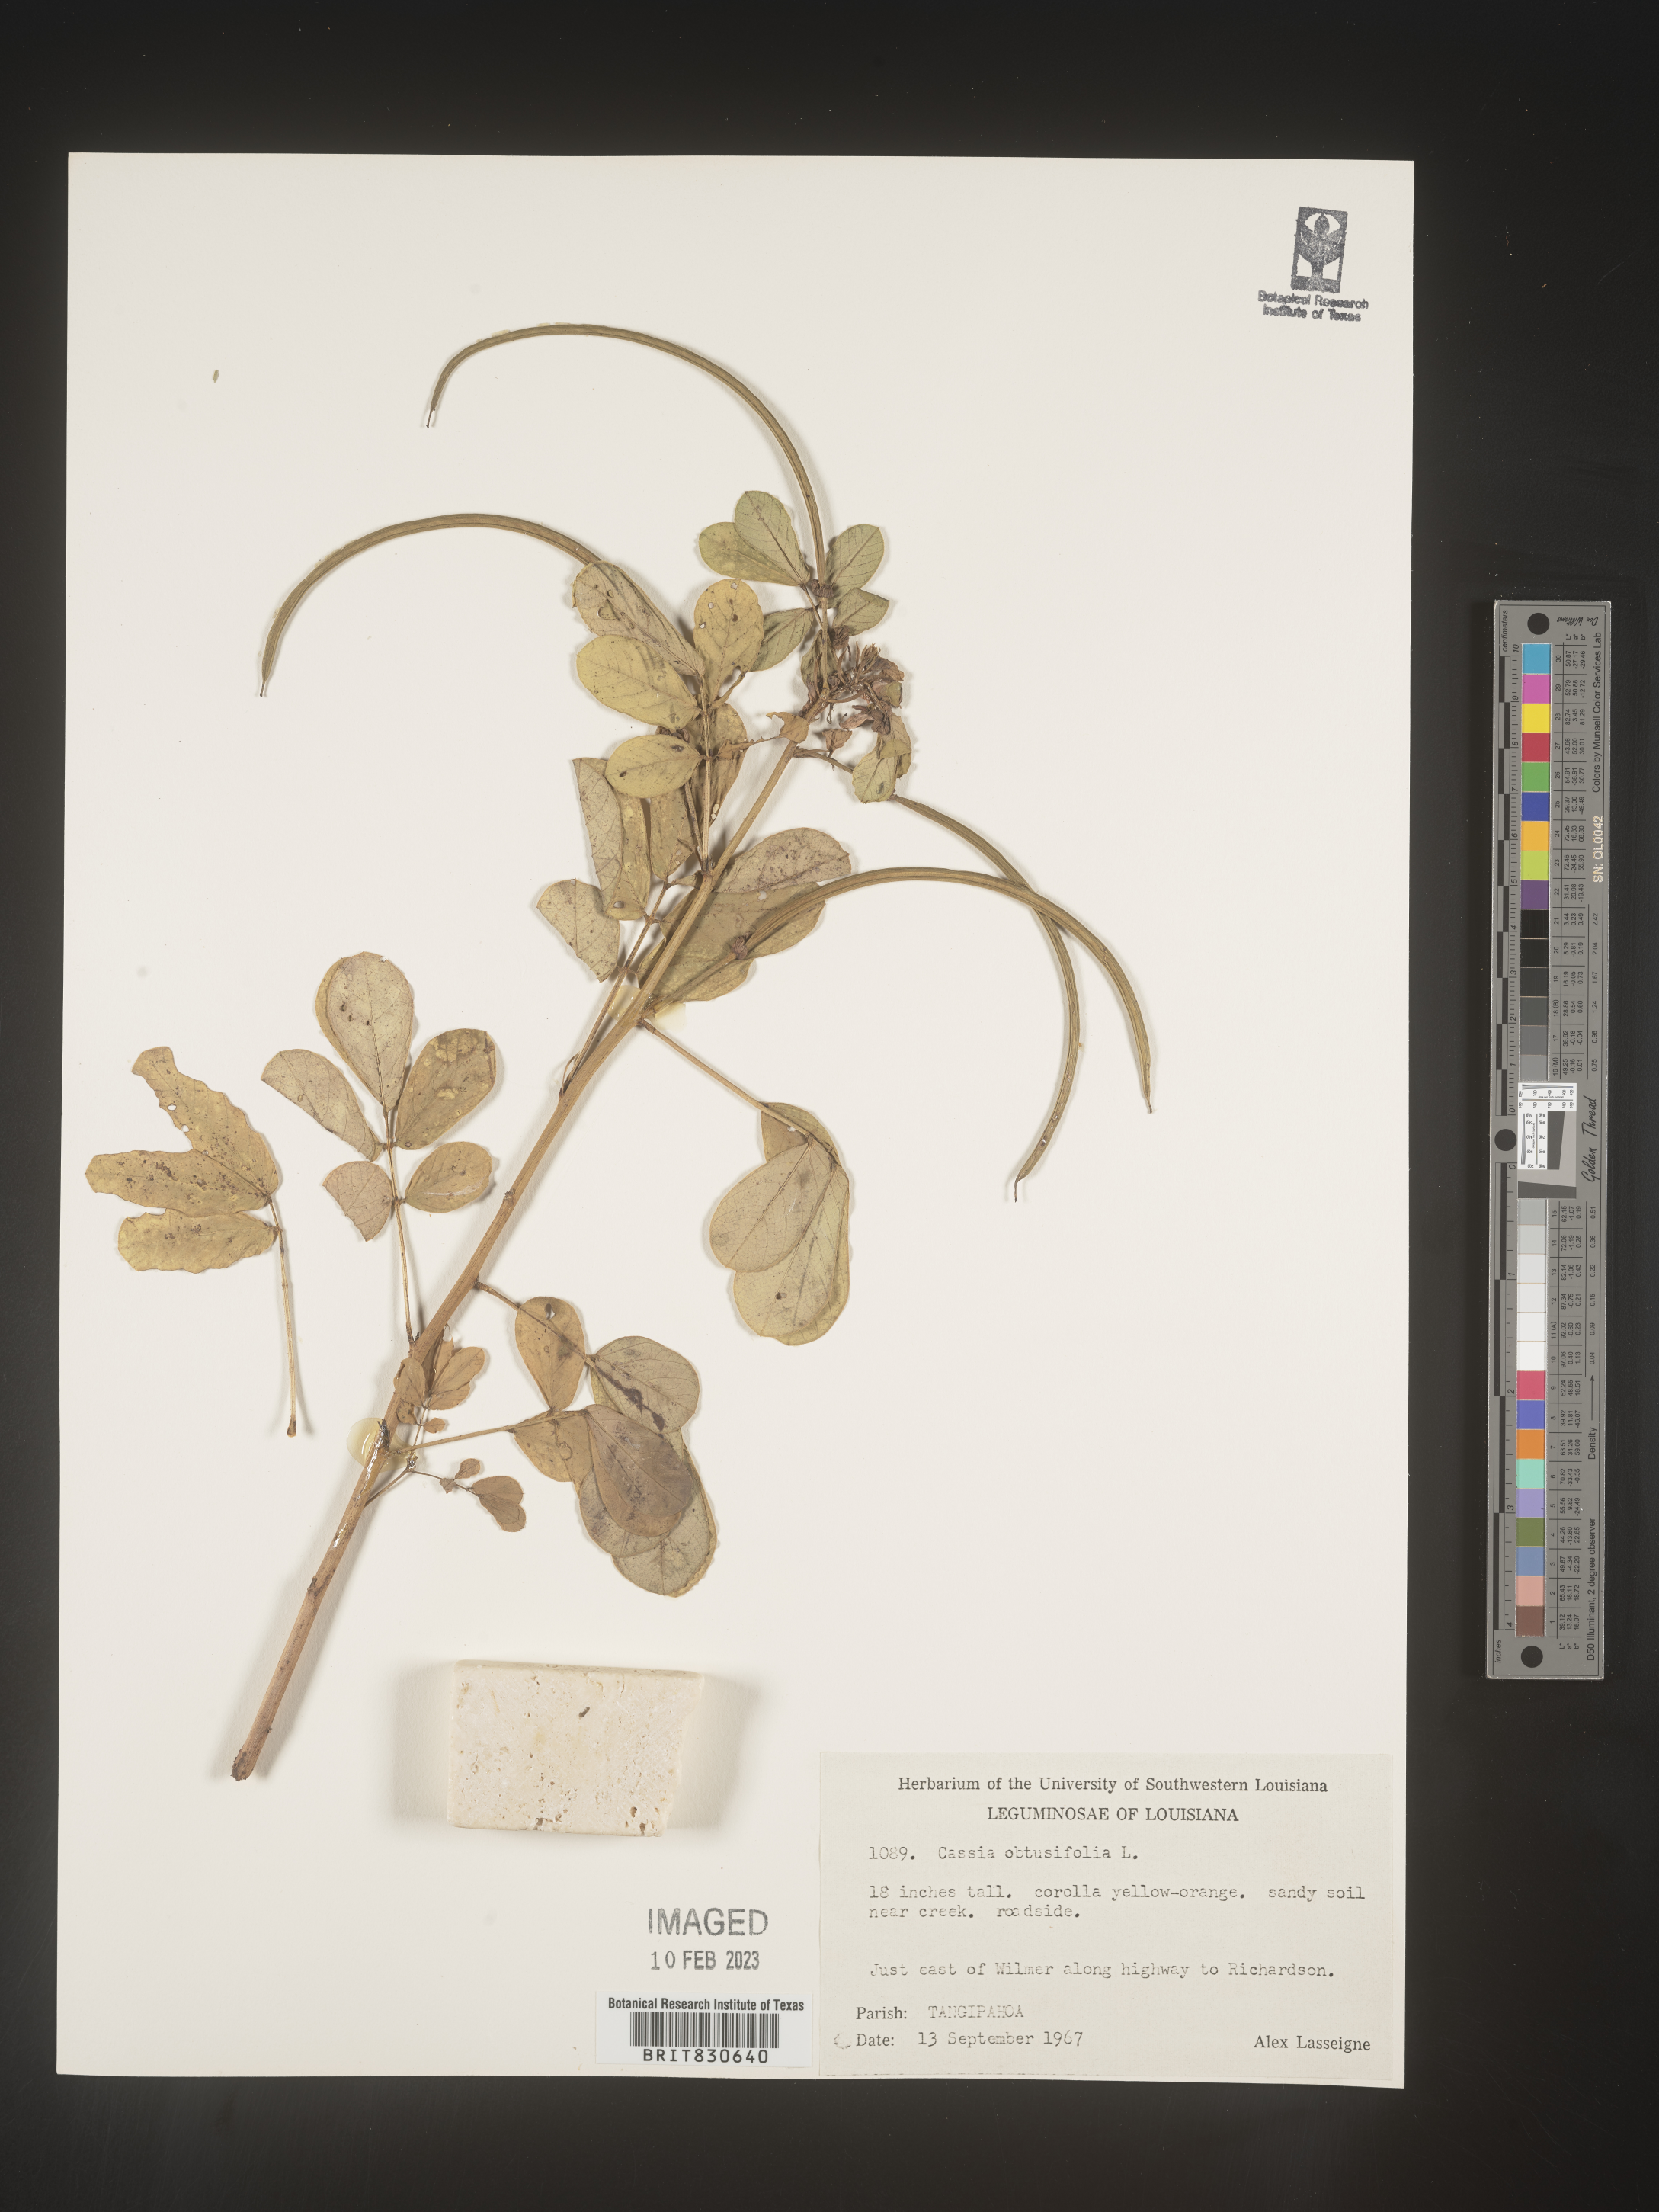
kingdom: Plantae
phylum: Tracheophyta
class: Magnoliopsida
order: Fabales
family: Fabaceae
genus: Senna
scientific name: Senna obtusifolia
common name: Java-bean
